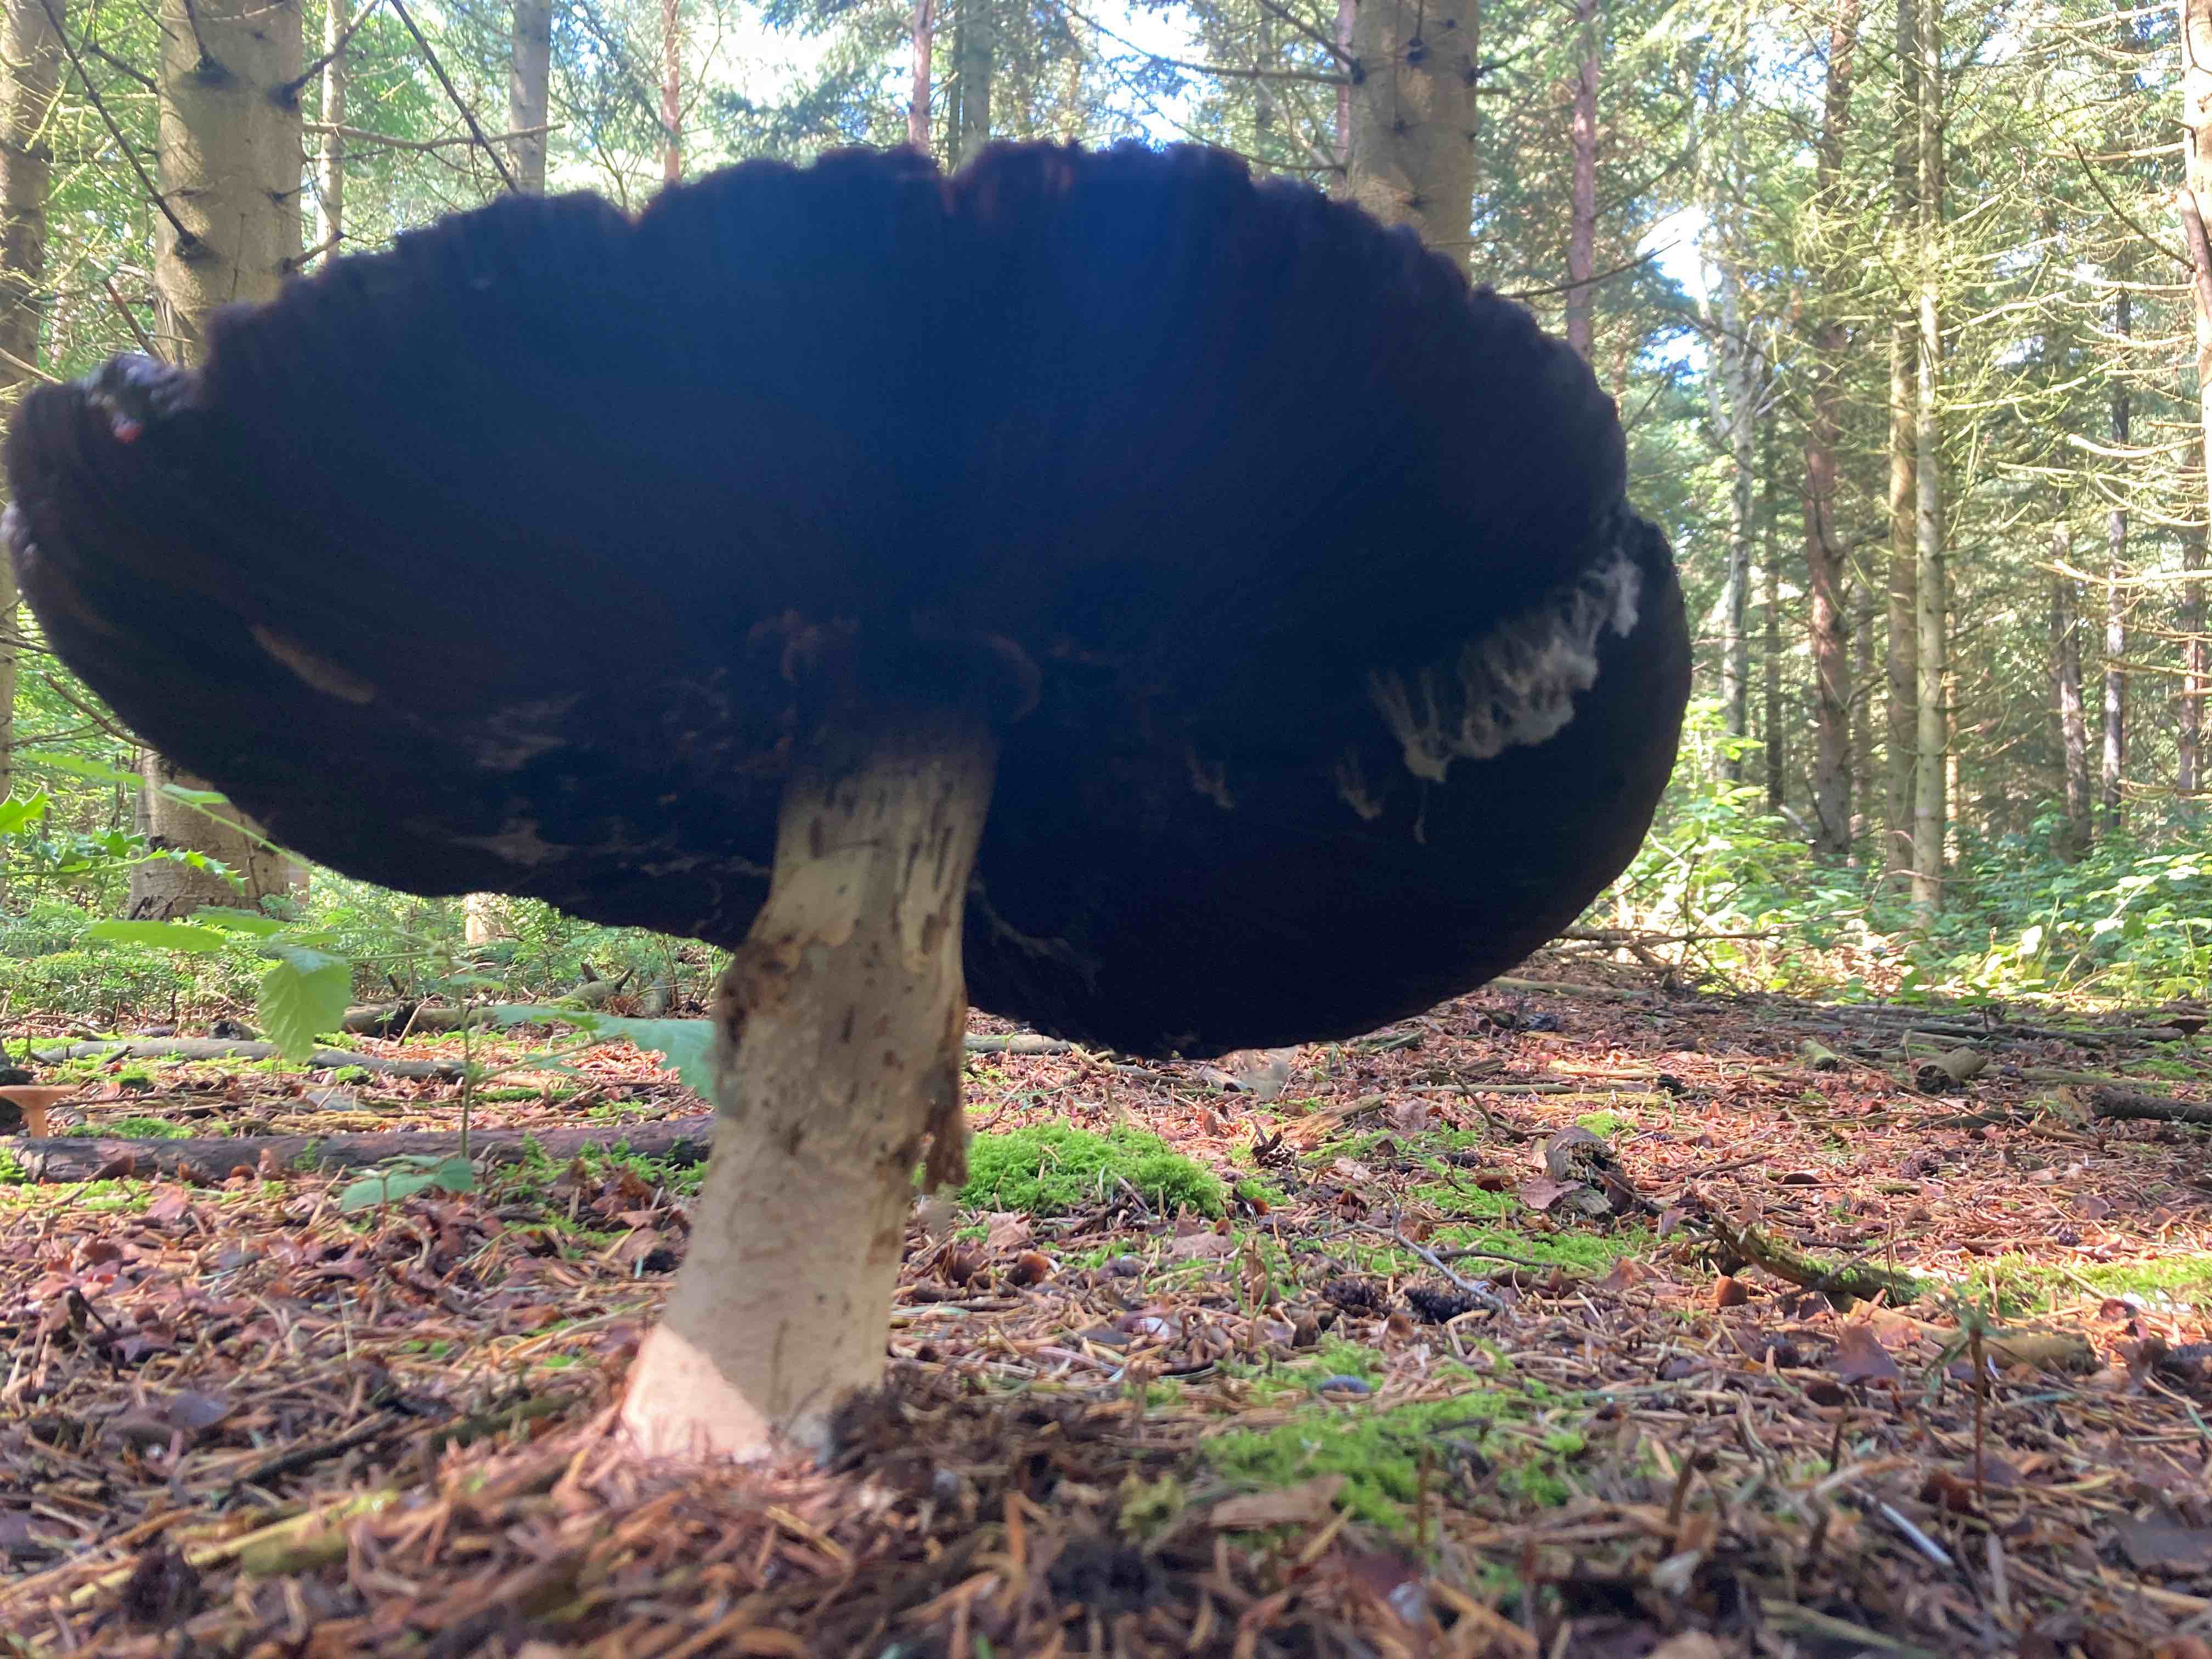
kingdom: Fungi
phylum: Basidiomycota
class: Agaricomycetes
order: Agaricales
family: Agaricaceae
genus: Agaricus
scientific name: Agaricus augustus
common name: prægtig champignon
